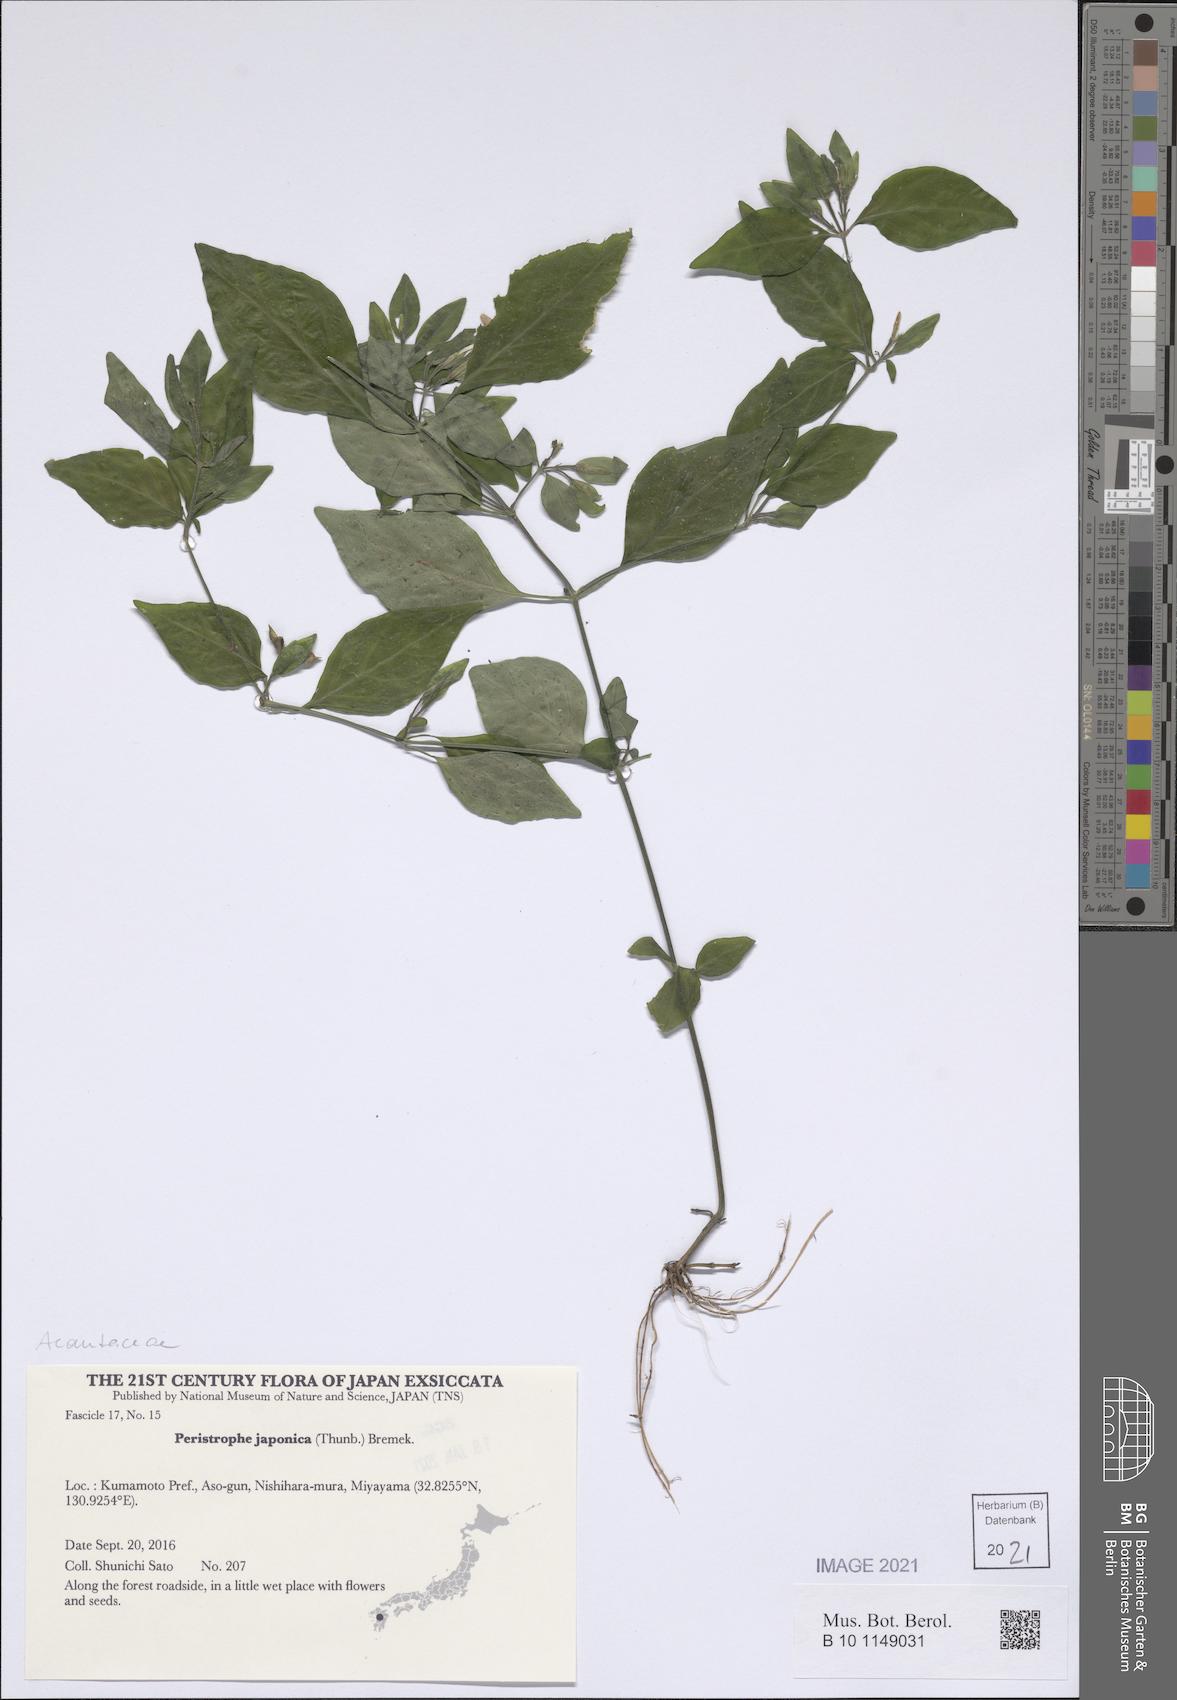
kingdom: Plantae
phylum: Tracheophyta
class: Magnoliopsida
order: Lamiales
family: Acanthaceae
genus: Dicliptera
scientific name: Dicliptera japonica
